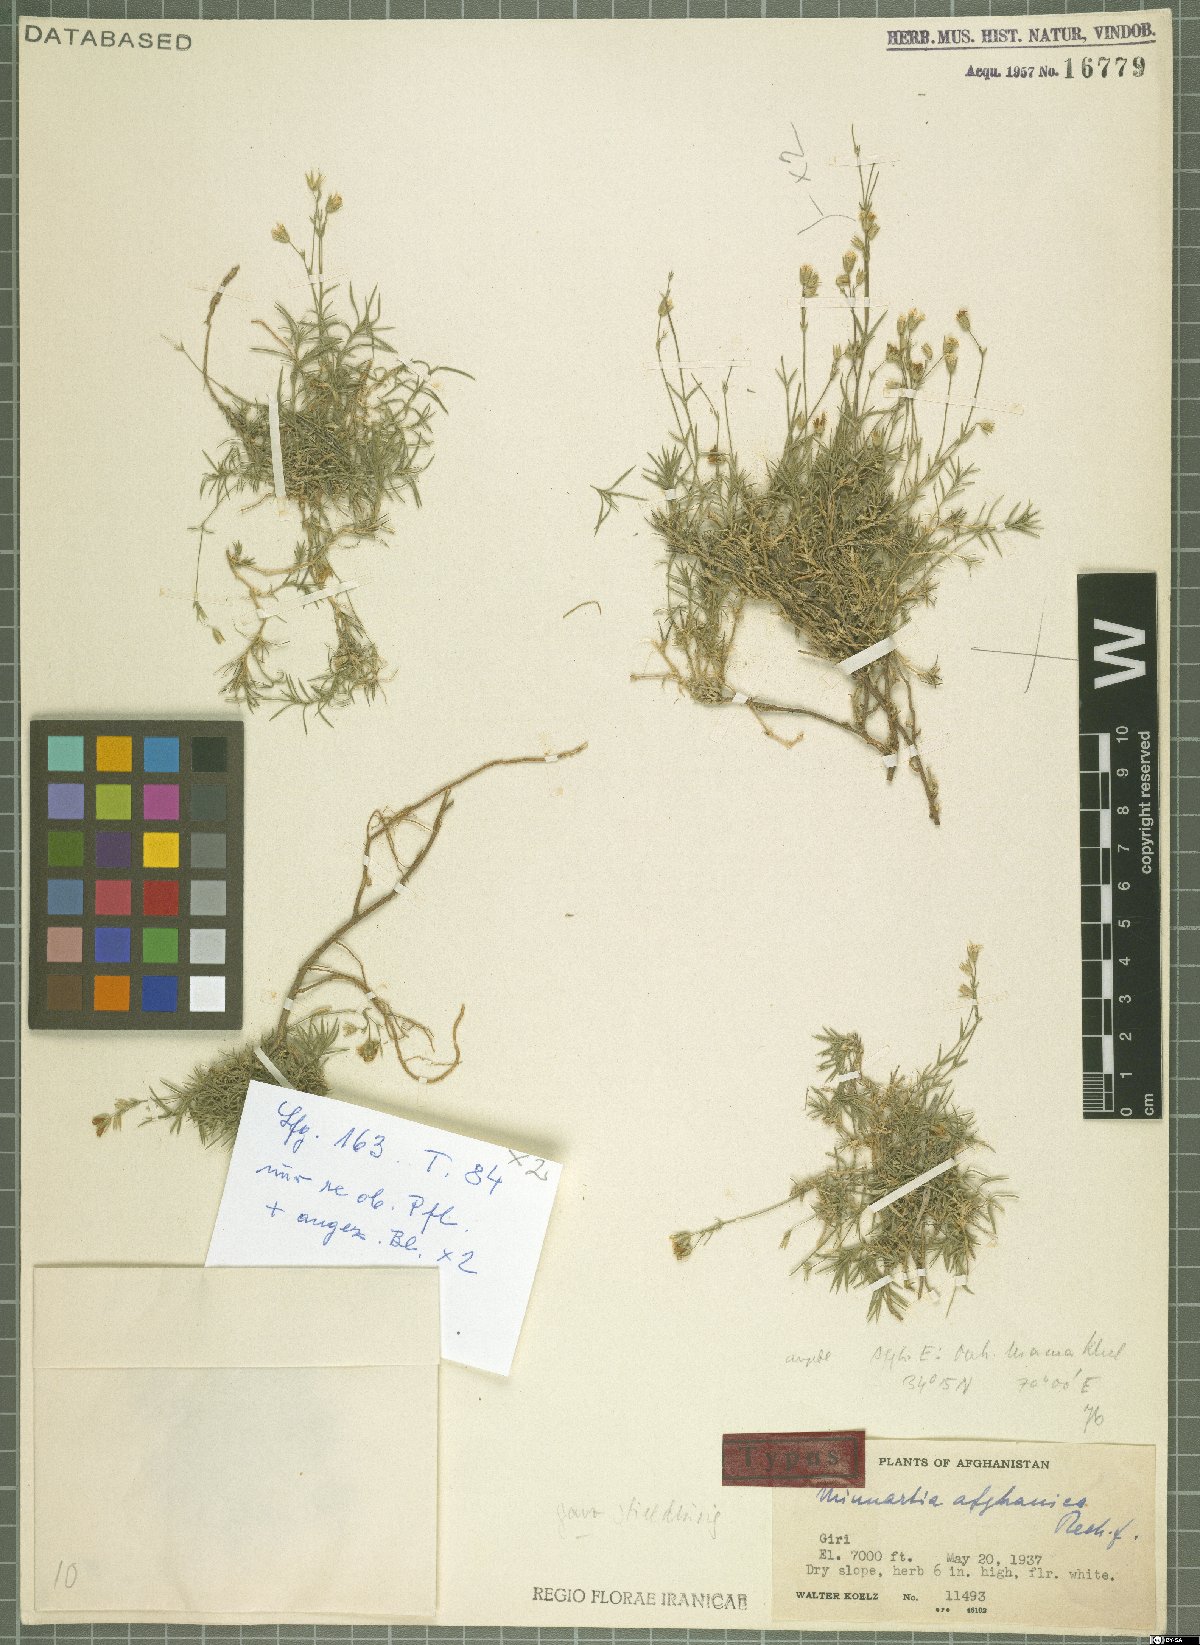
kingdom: Plantae
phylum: Tracheophyta
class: Magnoliopsida
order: Caryophyllales
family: Caryophyllaceae
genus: Sabulina
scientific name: Sabulina afghanica
